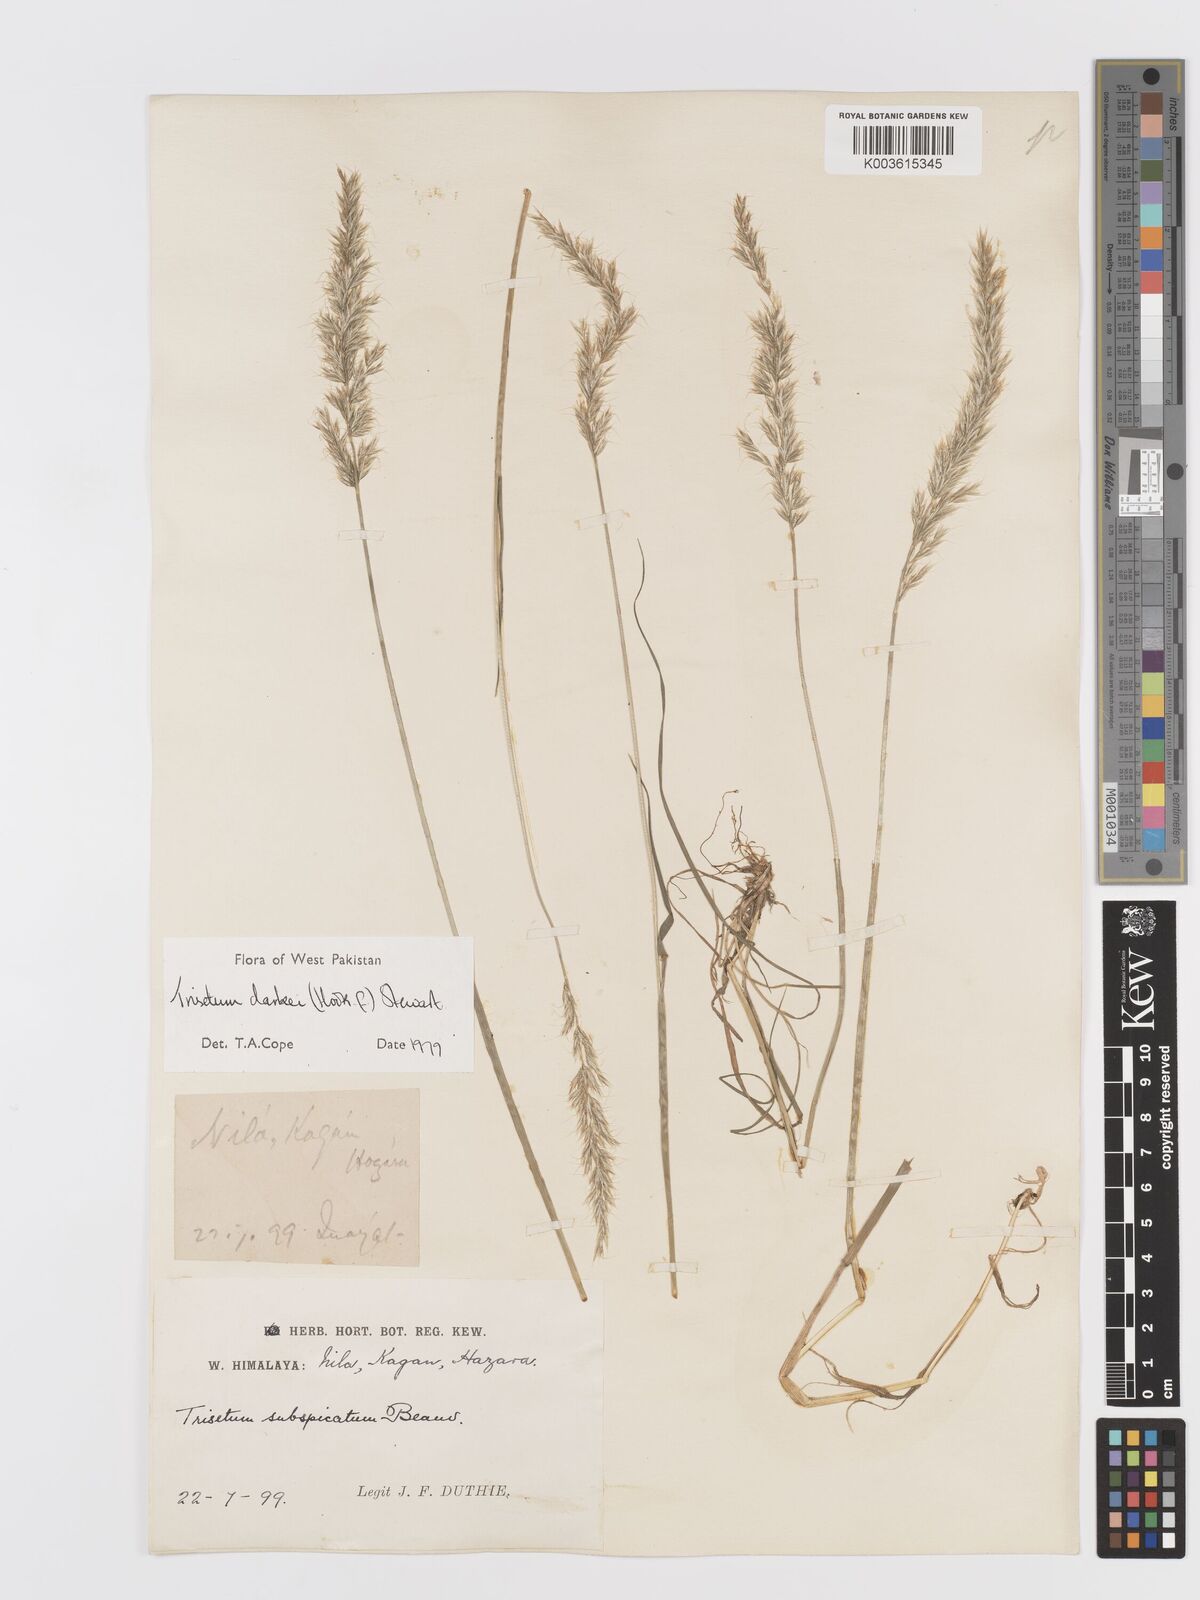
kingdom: Plantae
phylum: Tracheophyta
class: Liliopsida
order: Poales
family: Poaceae
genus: Trisetum
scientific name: Trisetum clarkei
